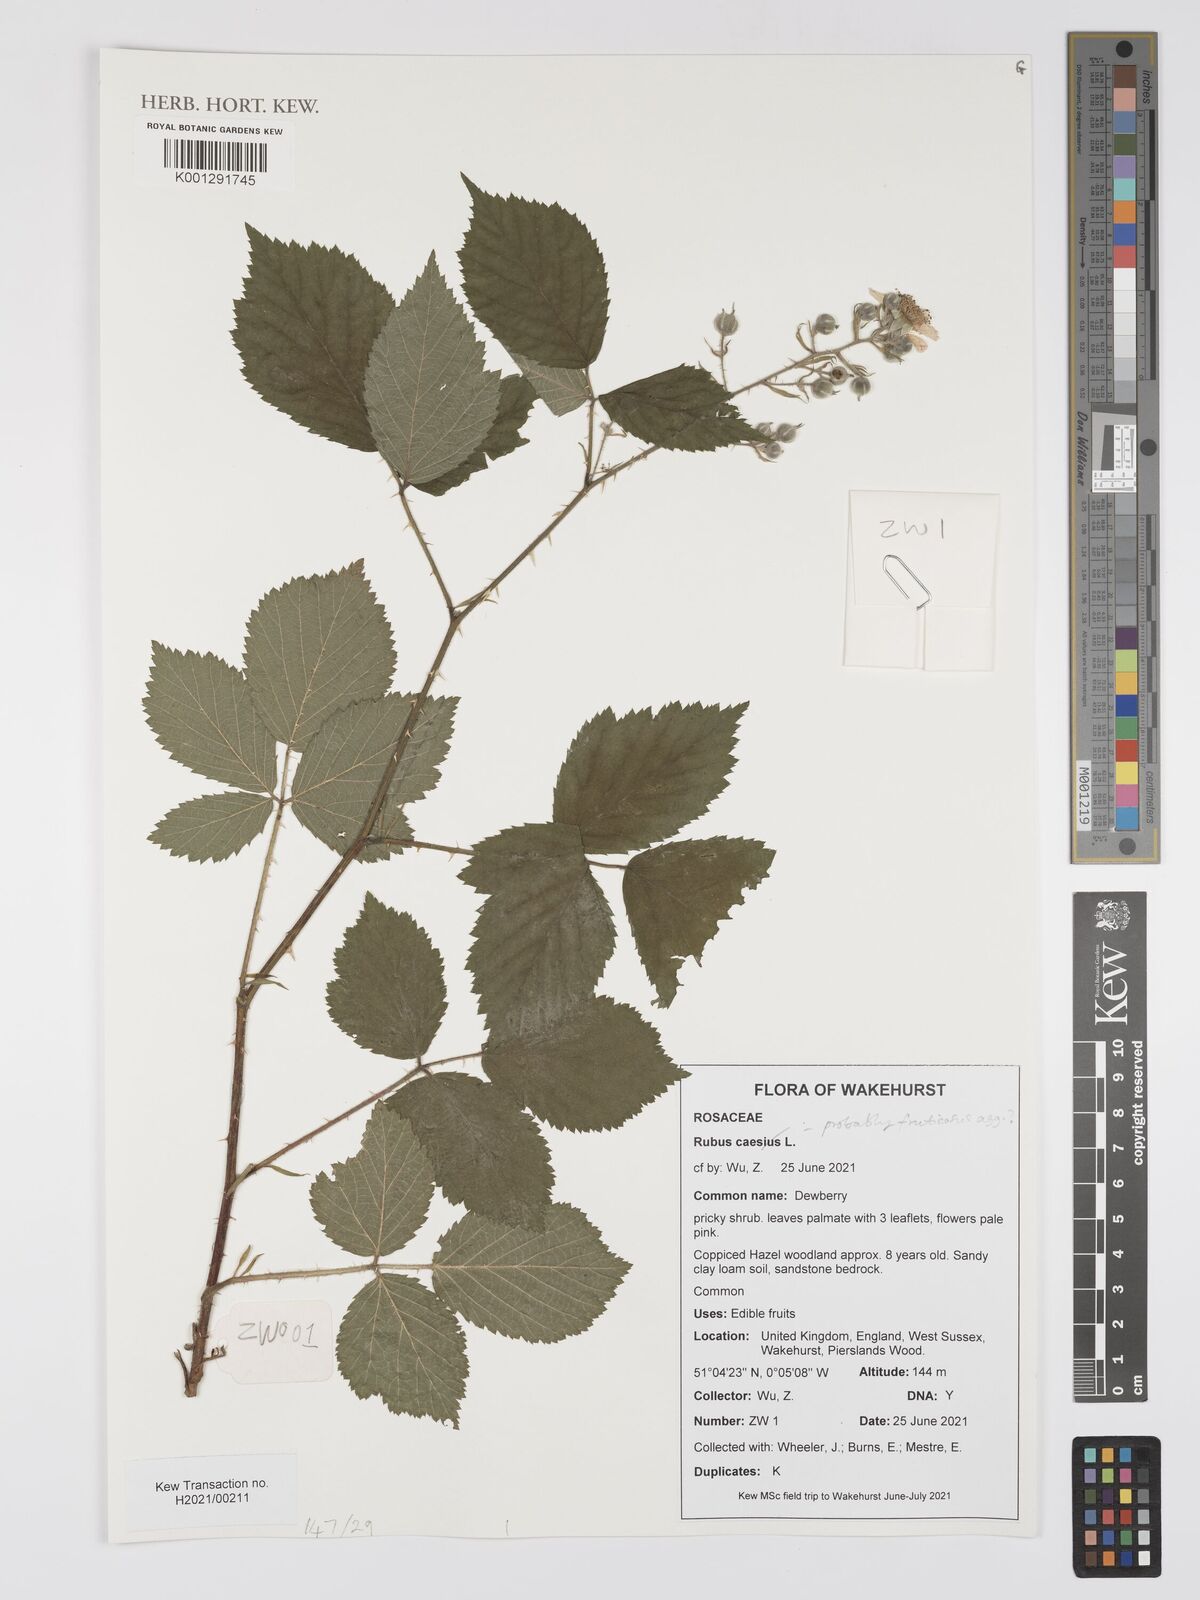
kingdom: Plantae
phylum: Tracheophyta
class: Magnoliopsida
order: Rosales
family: Rosaceae
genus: Rubus
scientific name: Rubus caesius
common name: Dewberry
